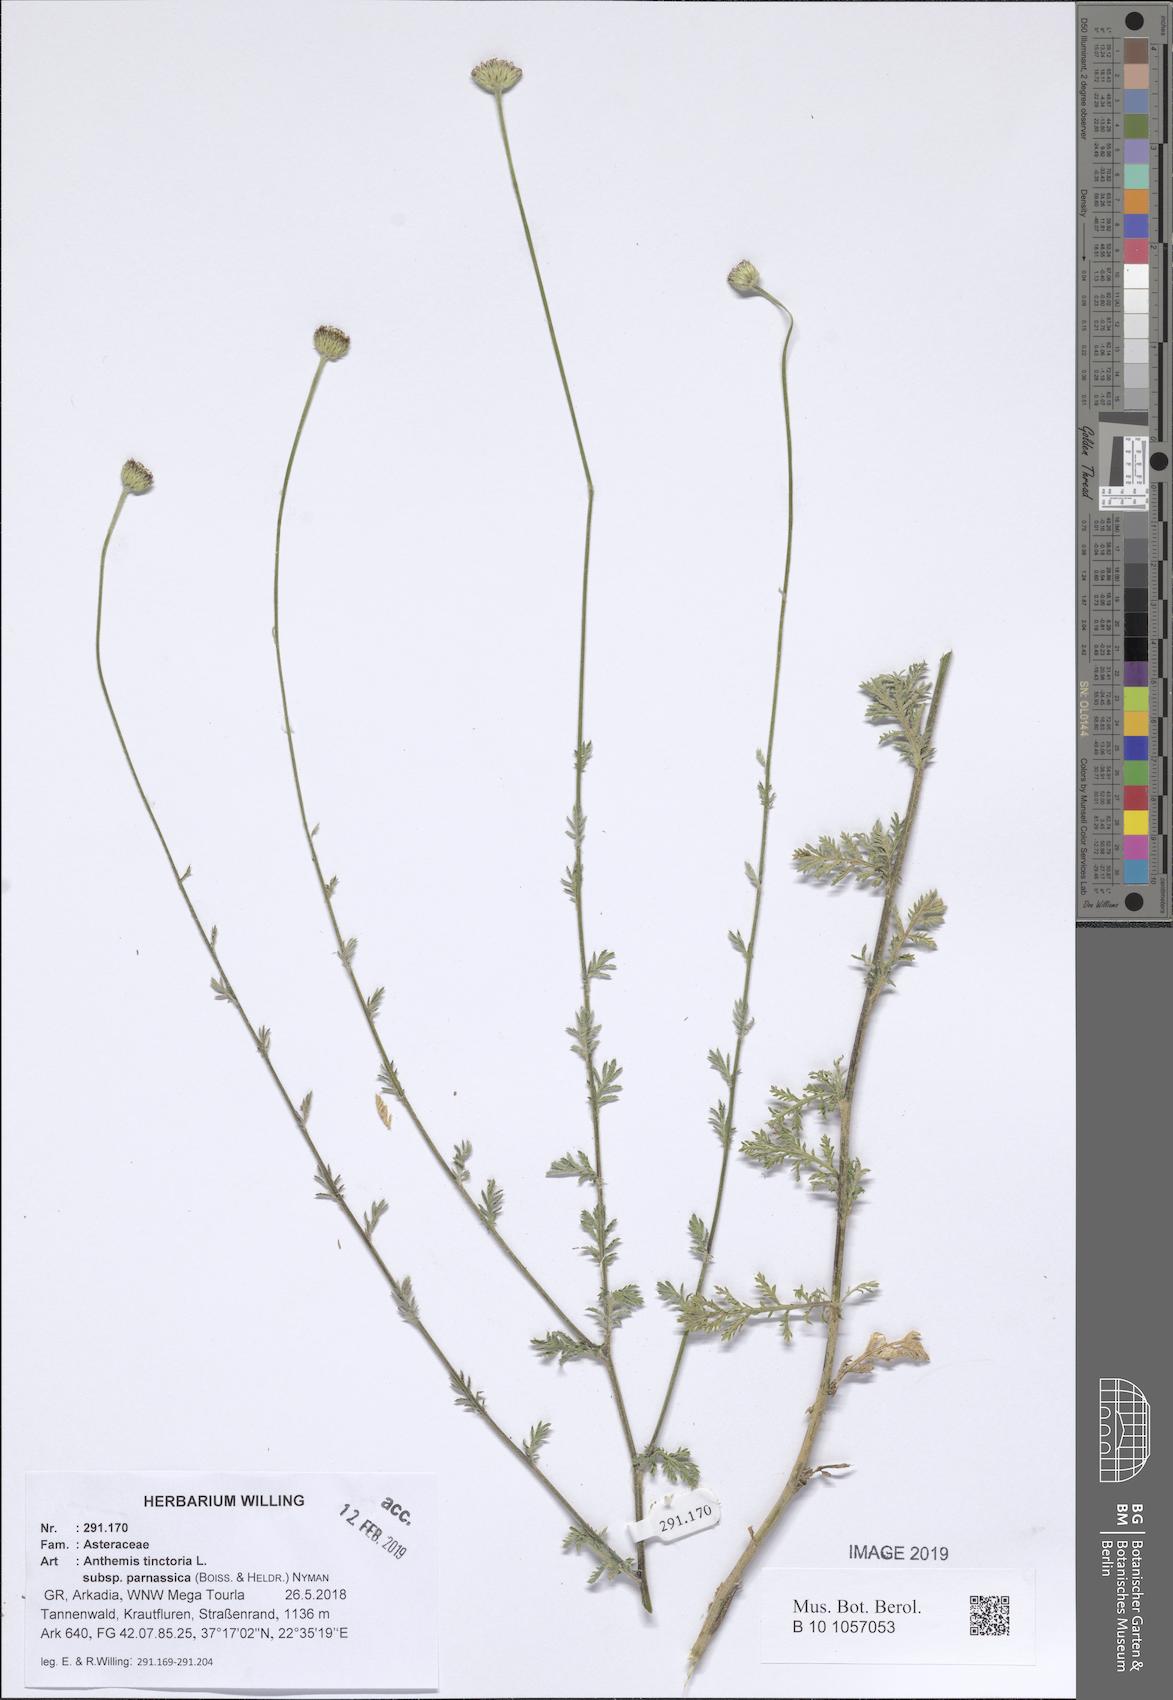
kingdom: Plantae
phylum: Tracheophyta
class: Magnoliopsida
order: Asterales
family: Asteraceae
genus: Cota
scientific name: Cota tinctoria
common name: Golden chamomile
